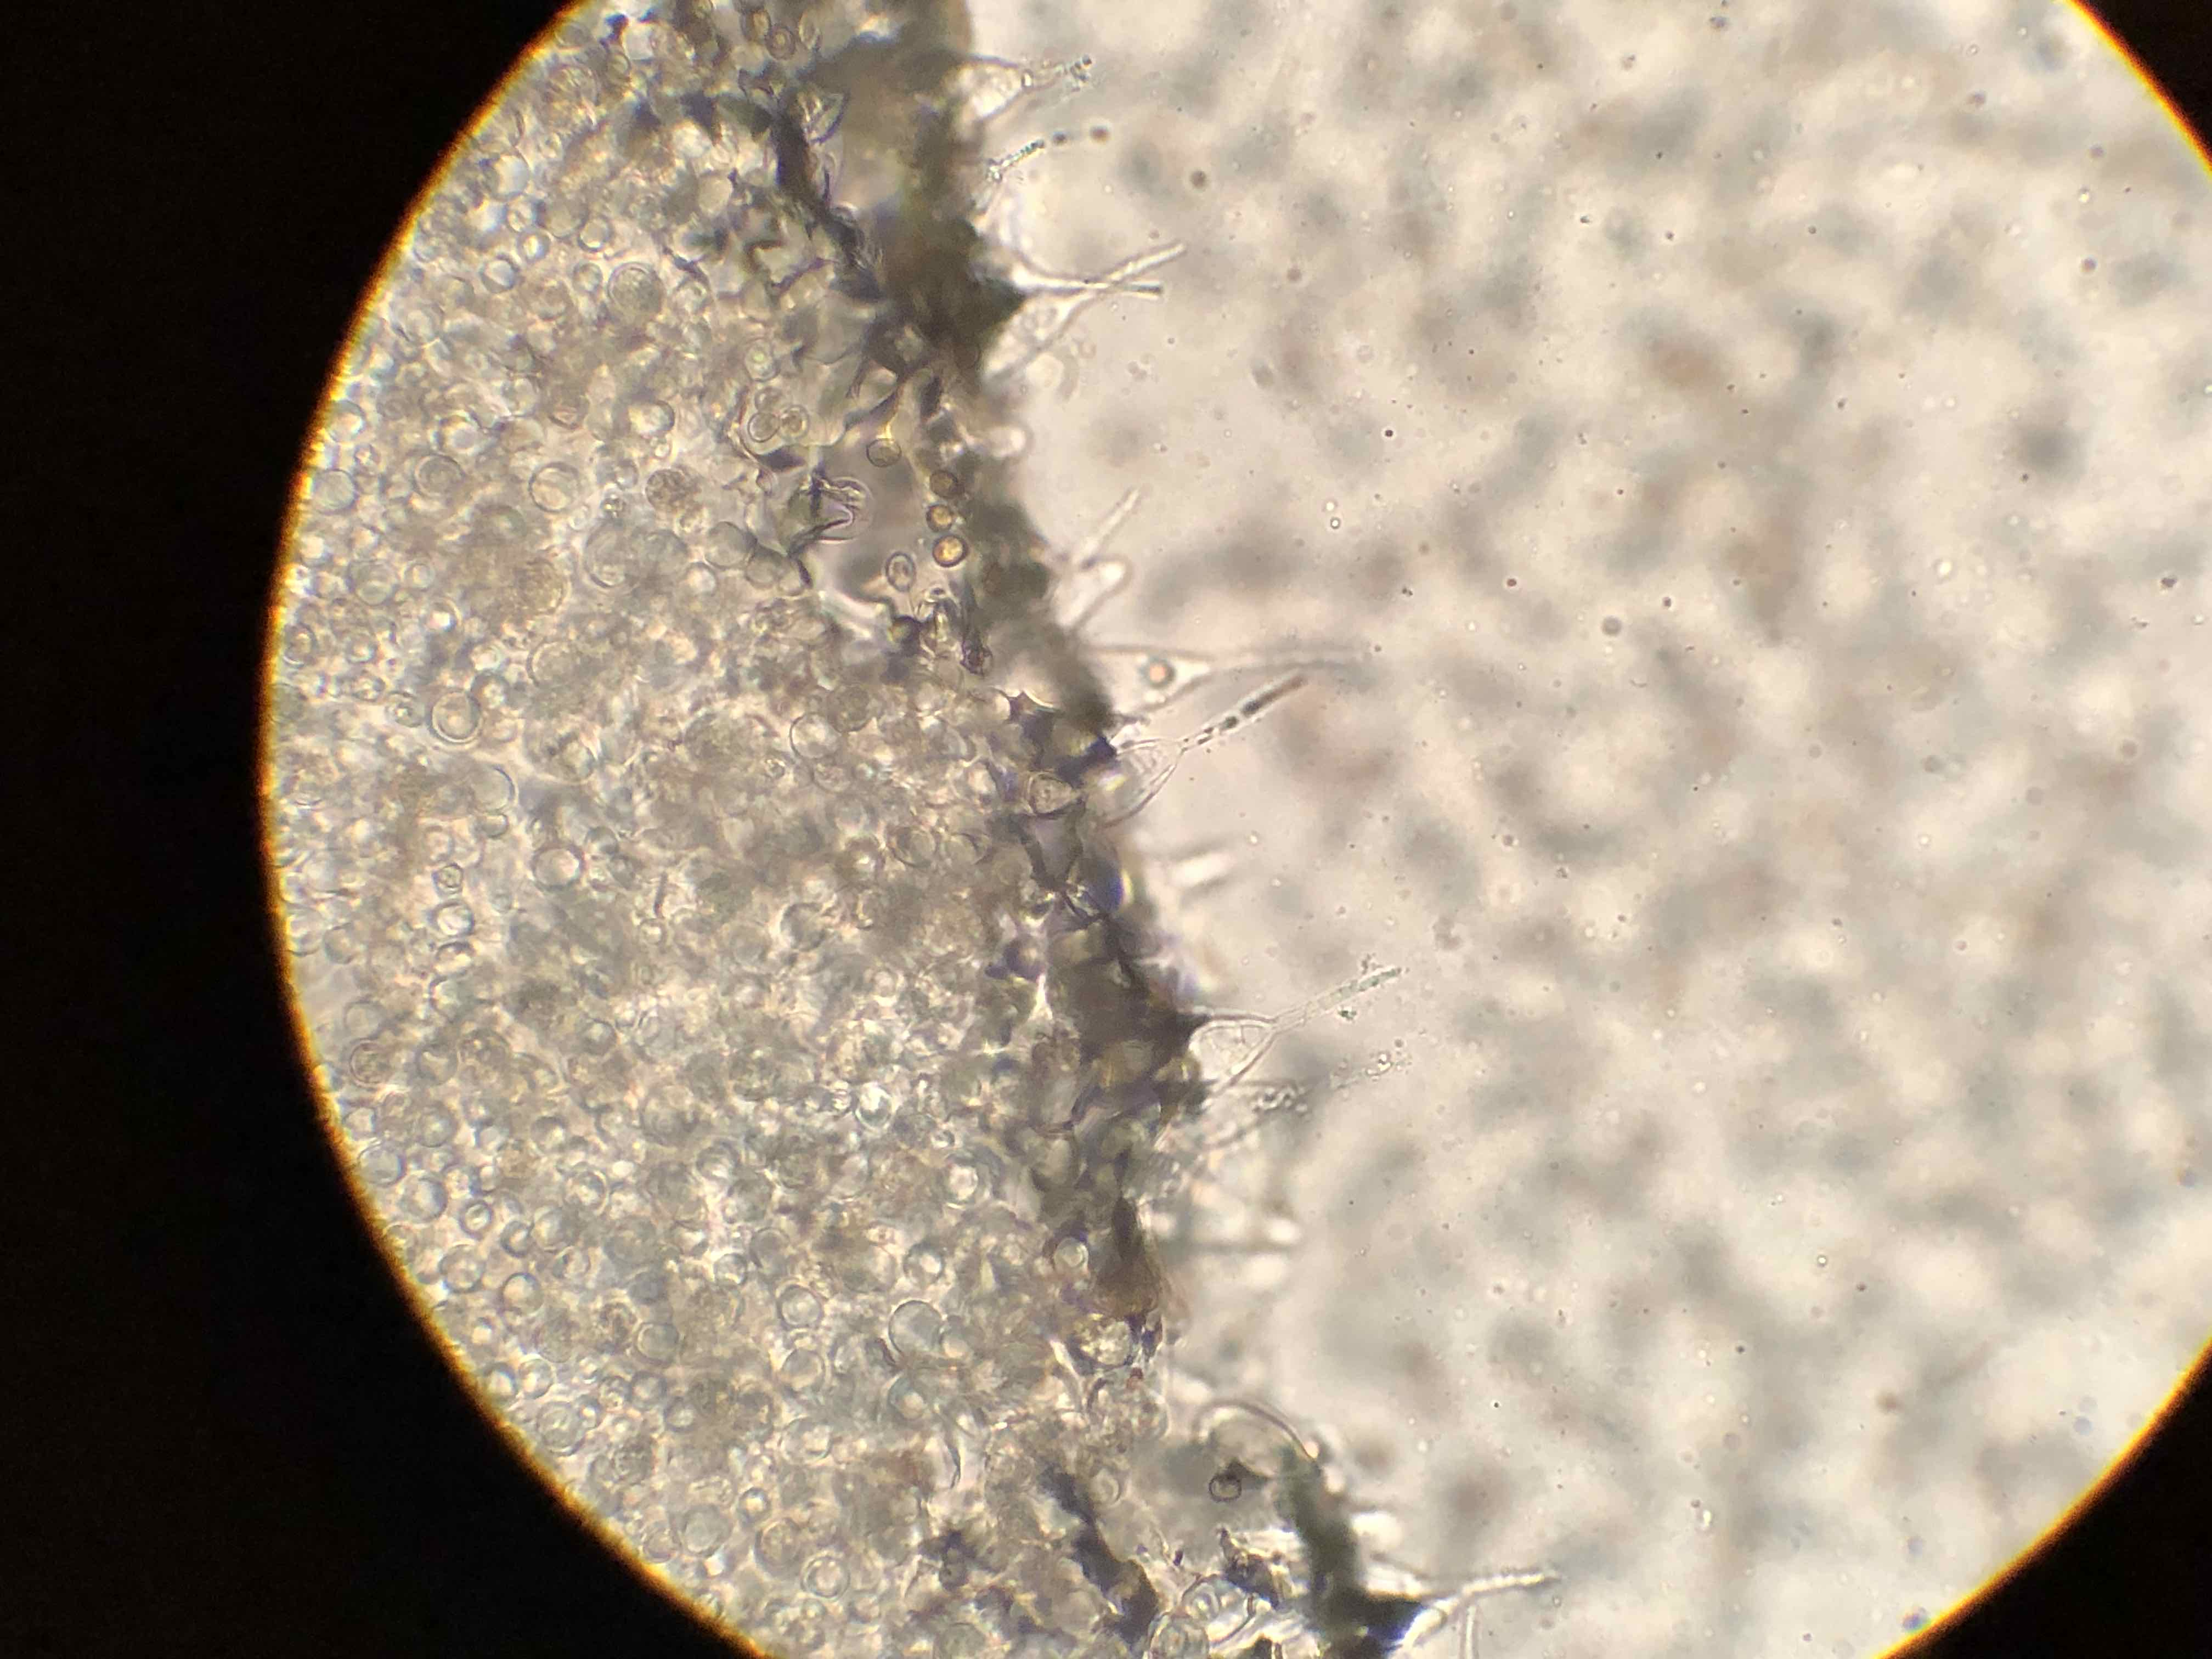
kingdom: Fungi
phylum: Basidiomycota
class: Agaricomycetes
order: Agaricales
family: Pluteaceae
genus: Pluteus
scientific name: Pluteus
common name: gråstokket skærmhat
